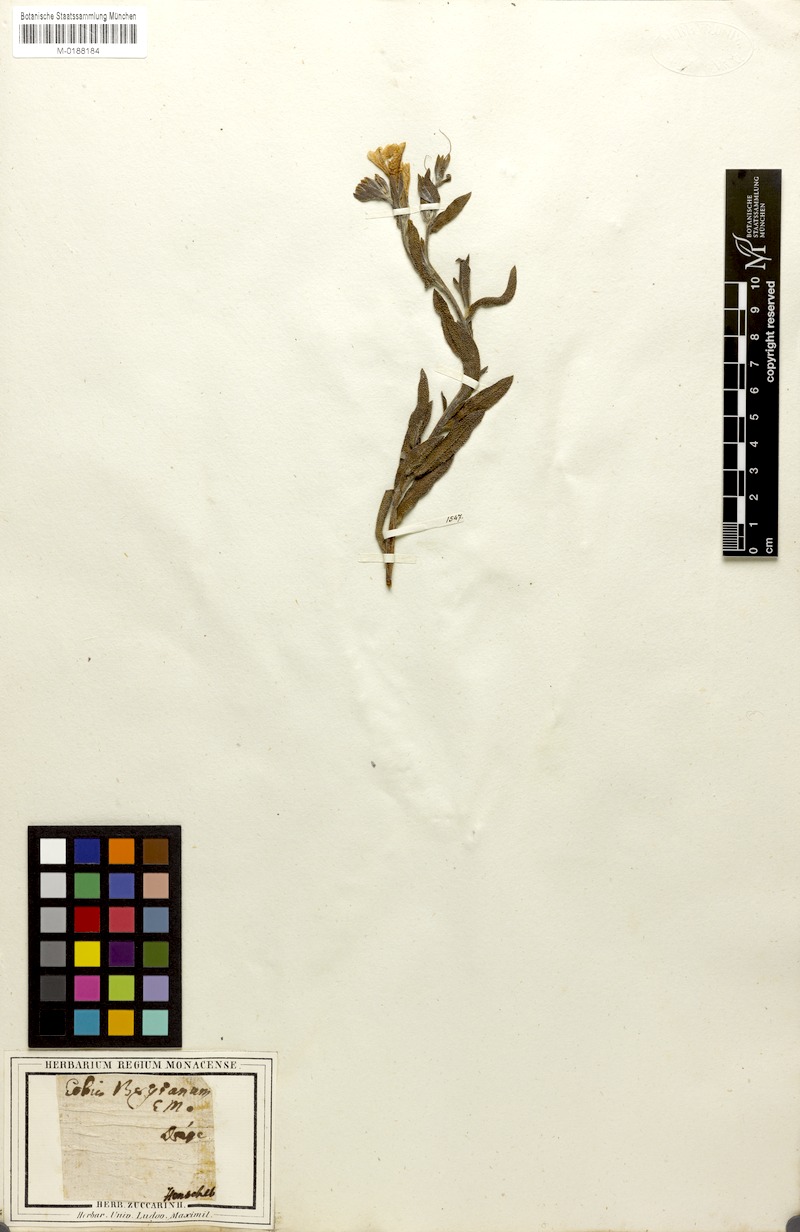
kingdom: Plantae
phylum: Tracheophyta
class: Magnoliopsida
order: Boraginales
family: Boraginaceae
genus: Lobostemon
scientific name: Lobostemon fruticosus
